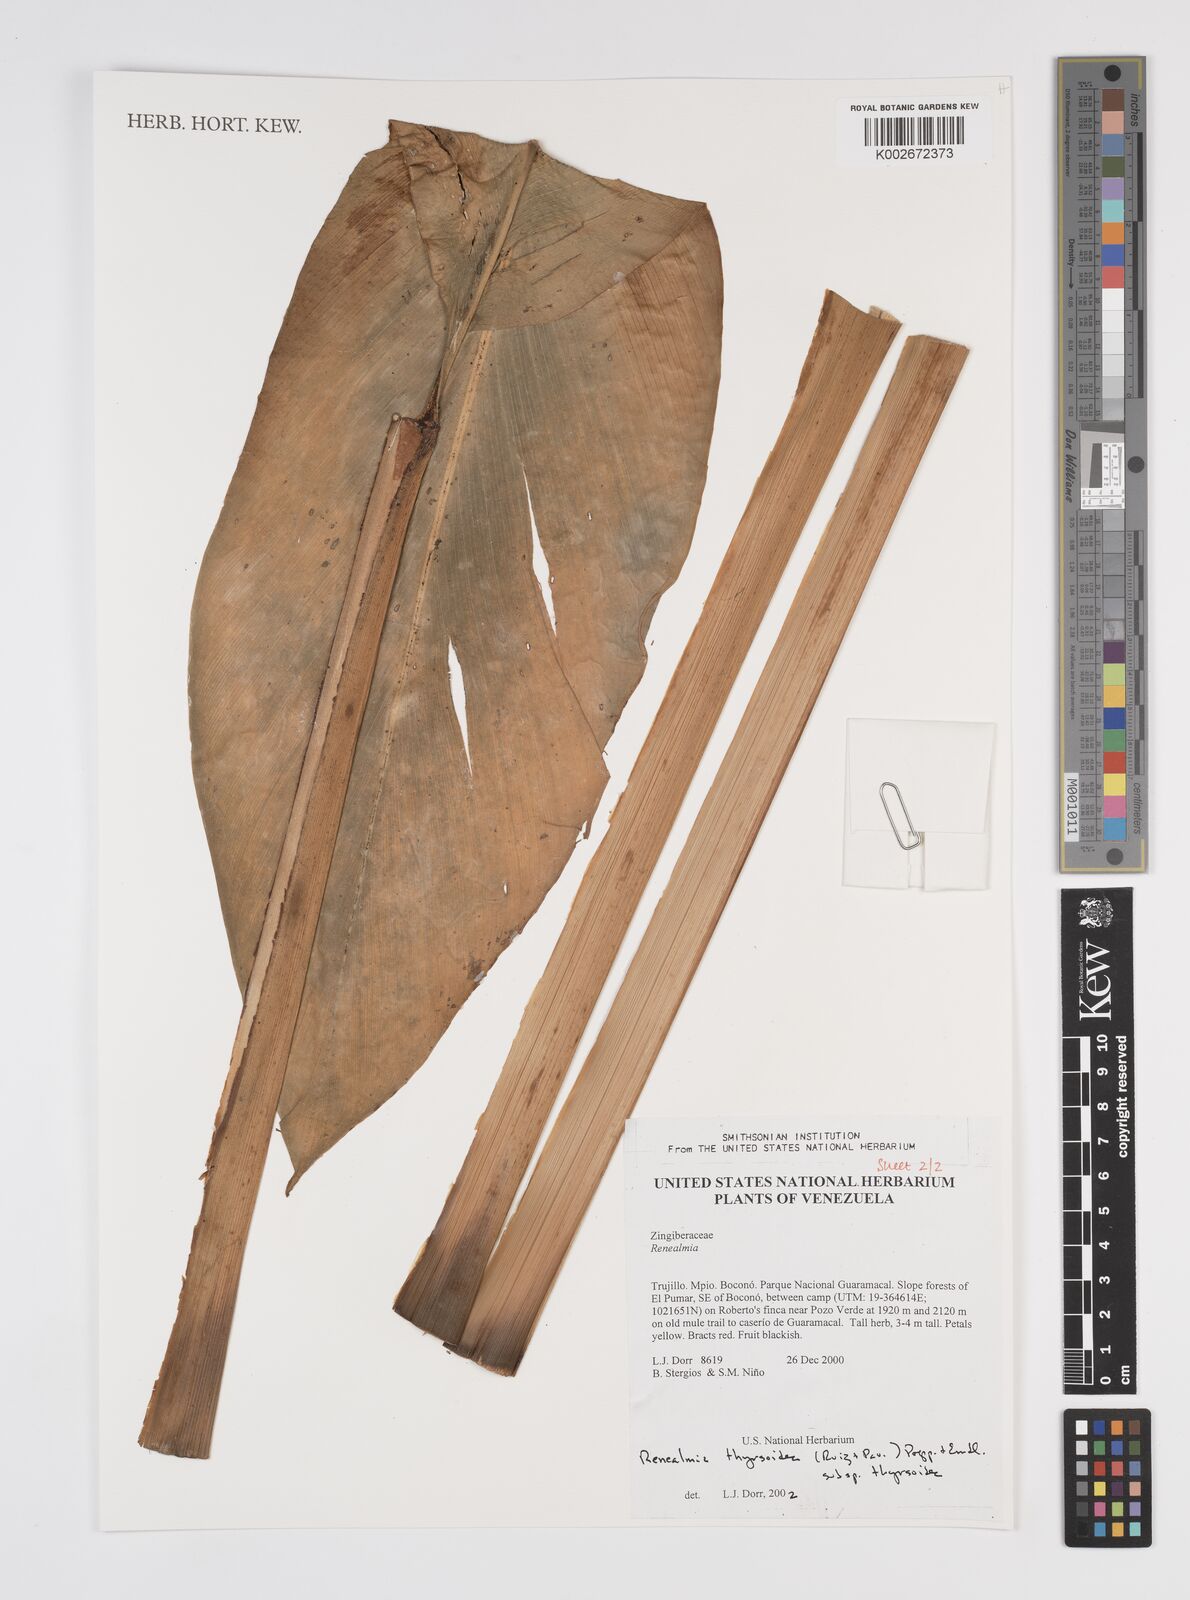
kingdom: Plantae
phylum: Tracheophyta
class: Liliopsida
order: Zingiberales
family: Zingiberaceae
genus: Renealmia
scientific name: Renealmia thyrsoidea
